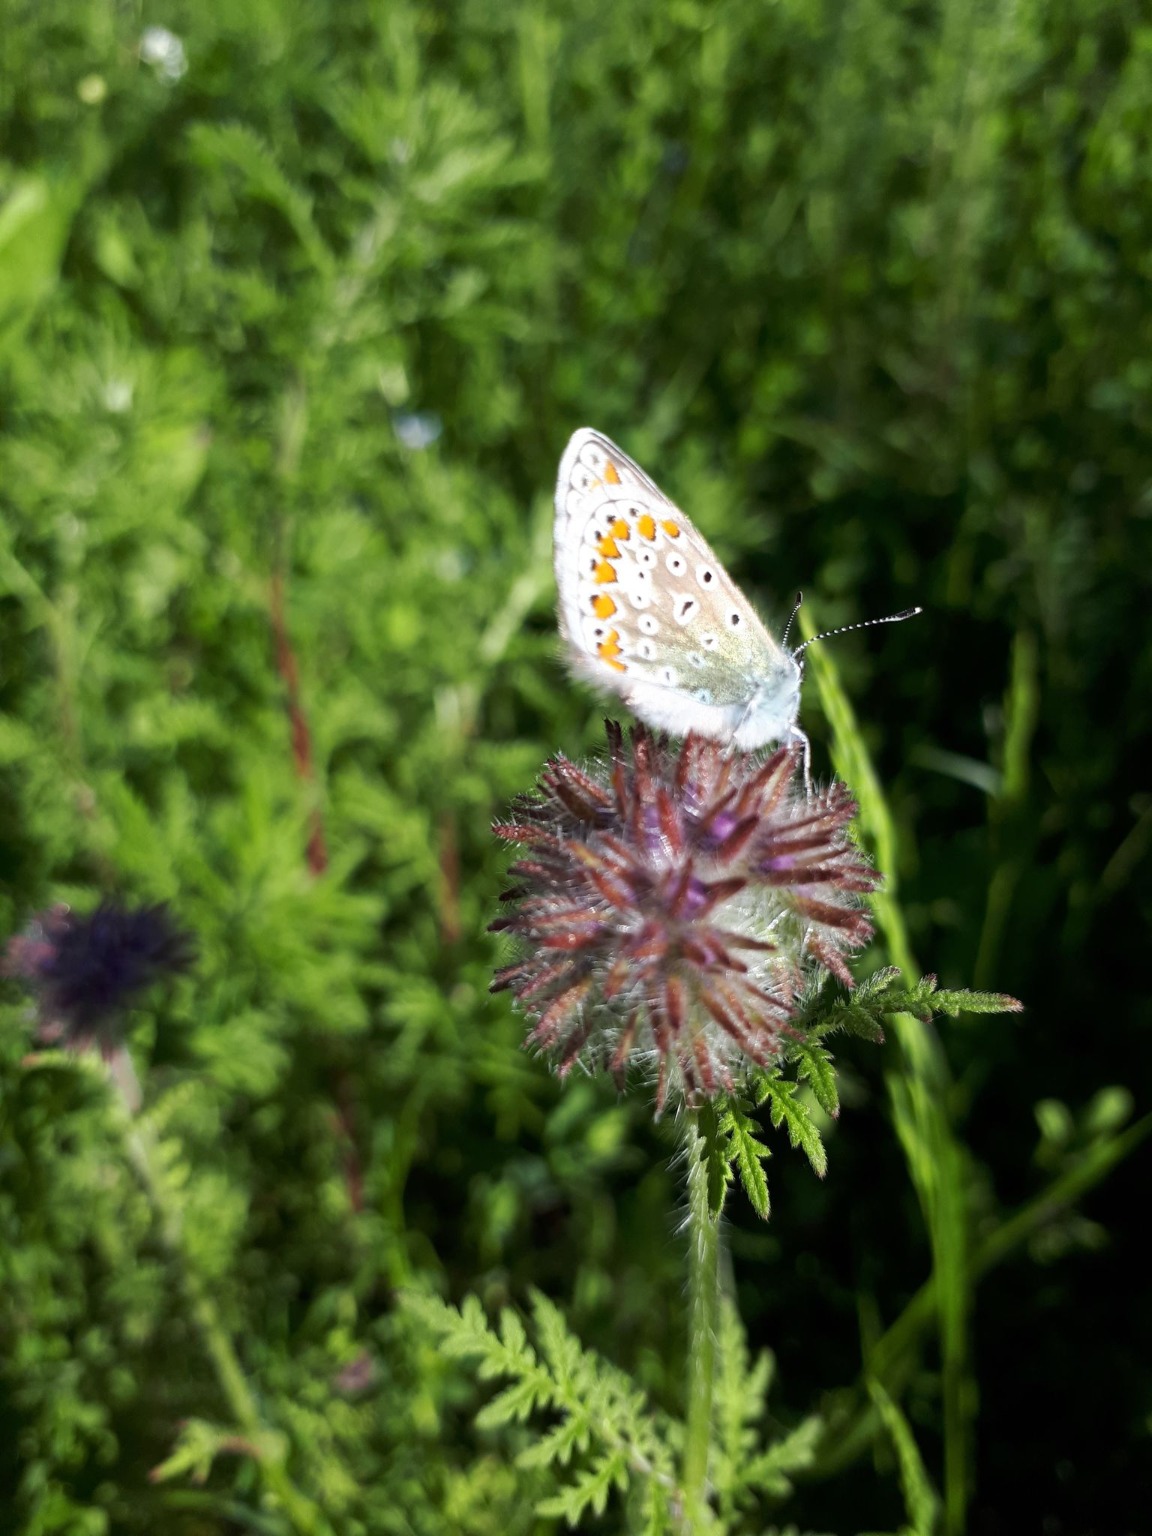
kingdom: Animalia
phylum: Arthropoda
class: Insecta
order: Lepidoptera
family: Lycaenidae
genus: Polyommatus
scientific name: Polyommatus icarus
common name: Almindelig blåfugl
